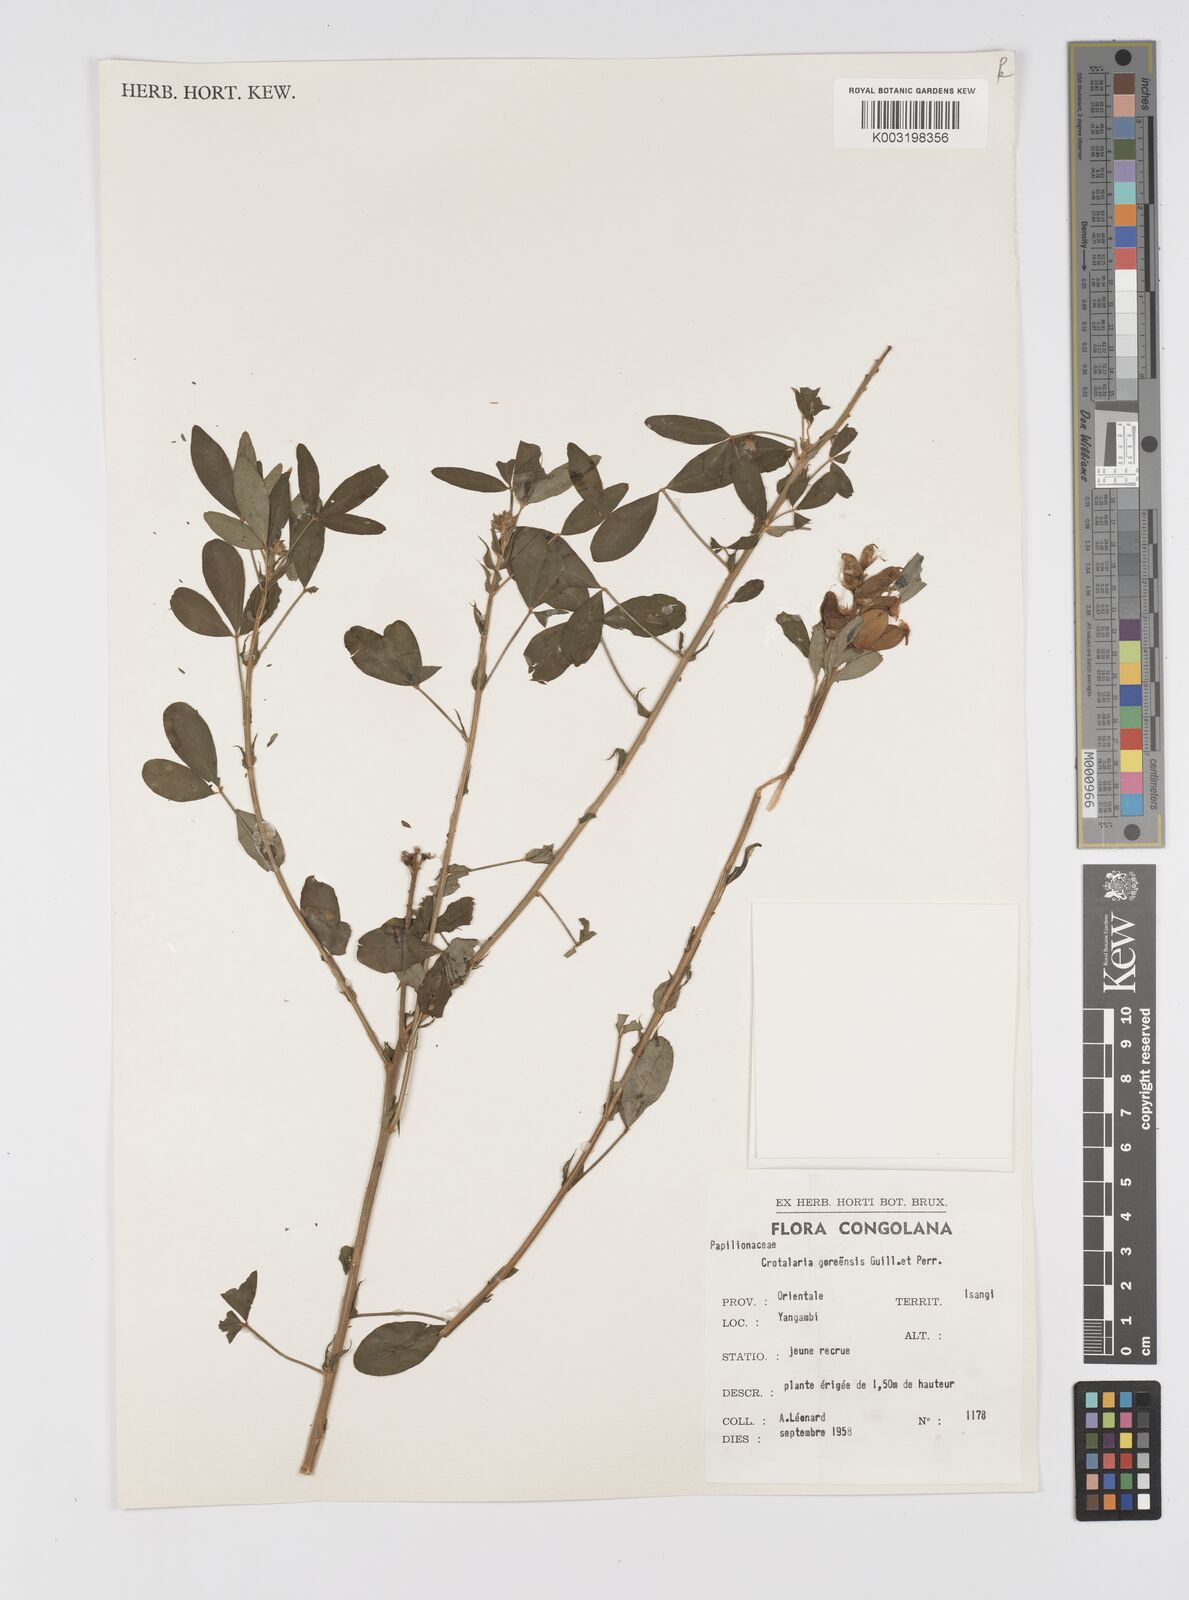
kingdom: Plantae
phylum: Tracheophyta
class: Magnoliopsida
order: Fabales
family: Fabaceae
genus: Crotalaria
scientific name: Crotalaria goreensis
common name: Gambia-pea
